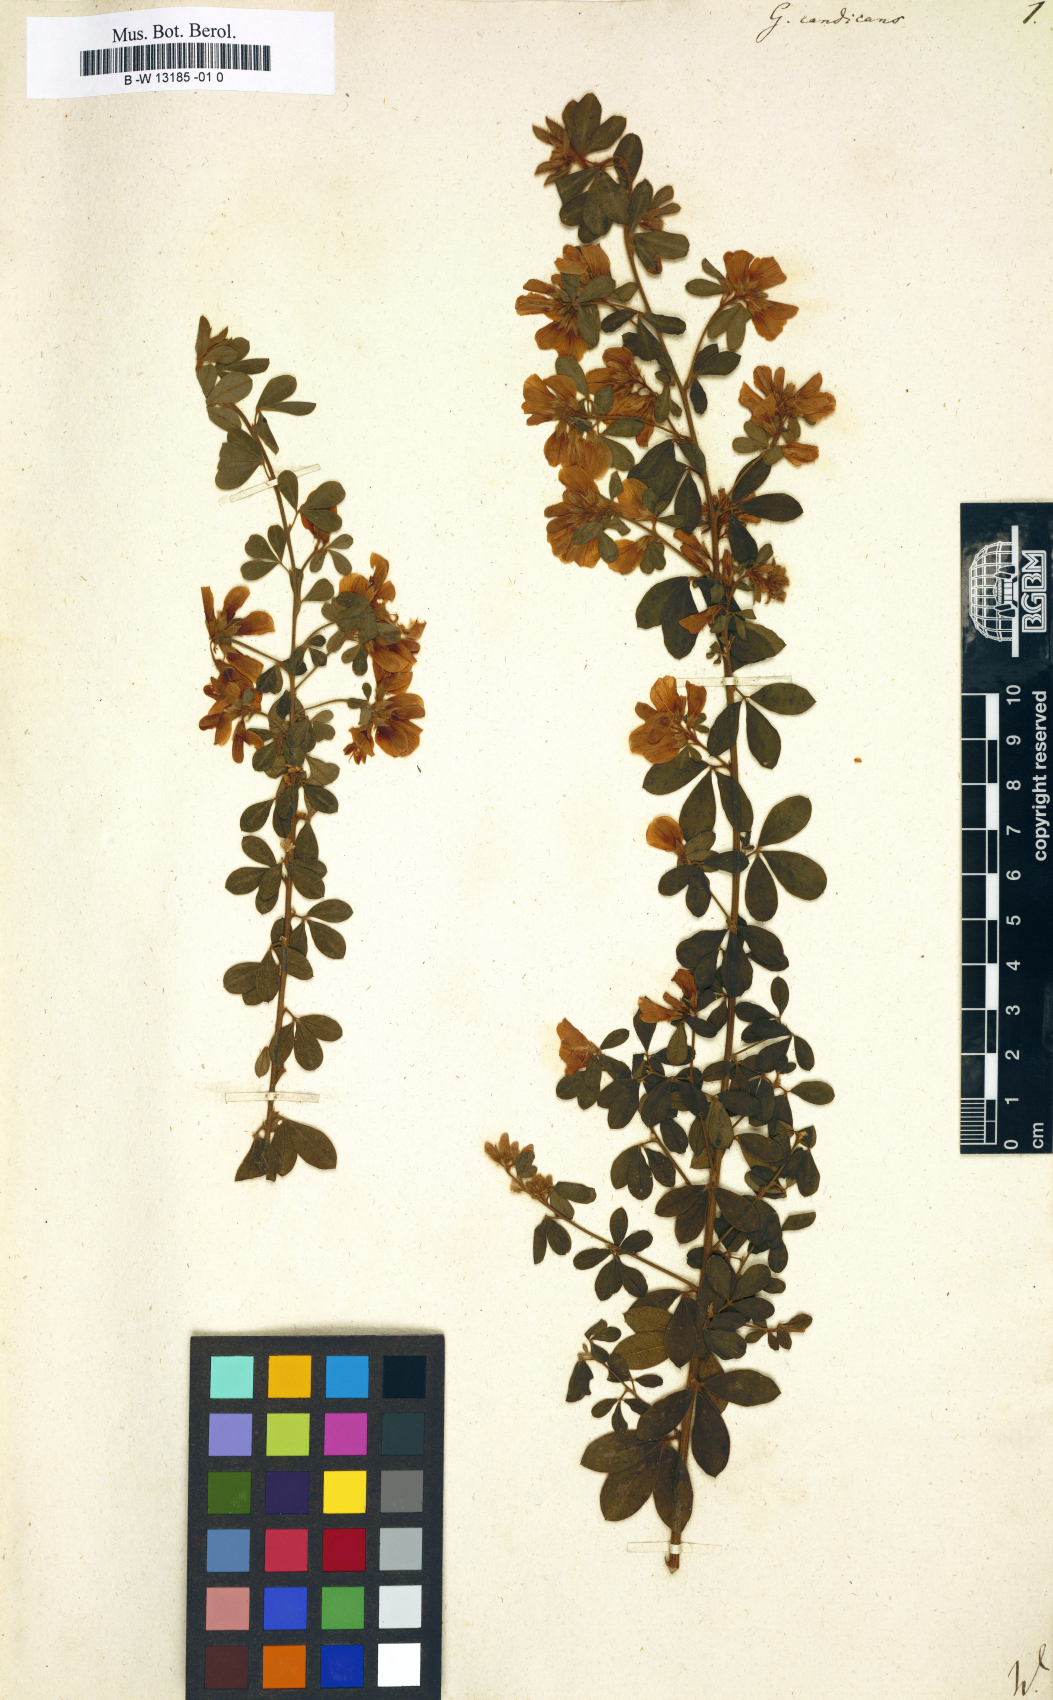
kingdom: Plantae
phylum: Tracheophyta
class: Magnoliopsida
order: Fabales
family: Fabaceae
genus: Genista
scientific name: Genista monspessulana
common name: Montpellier broom
